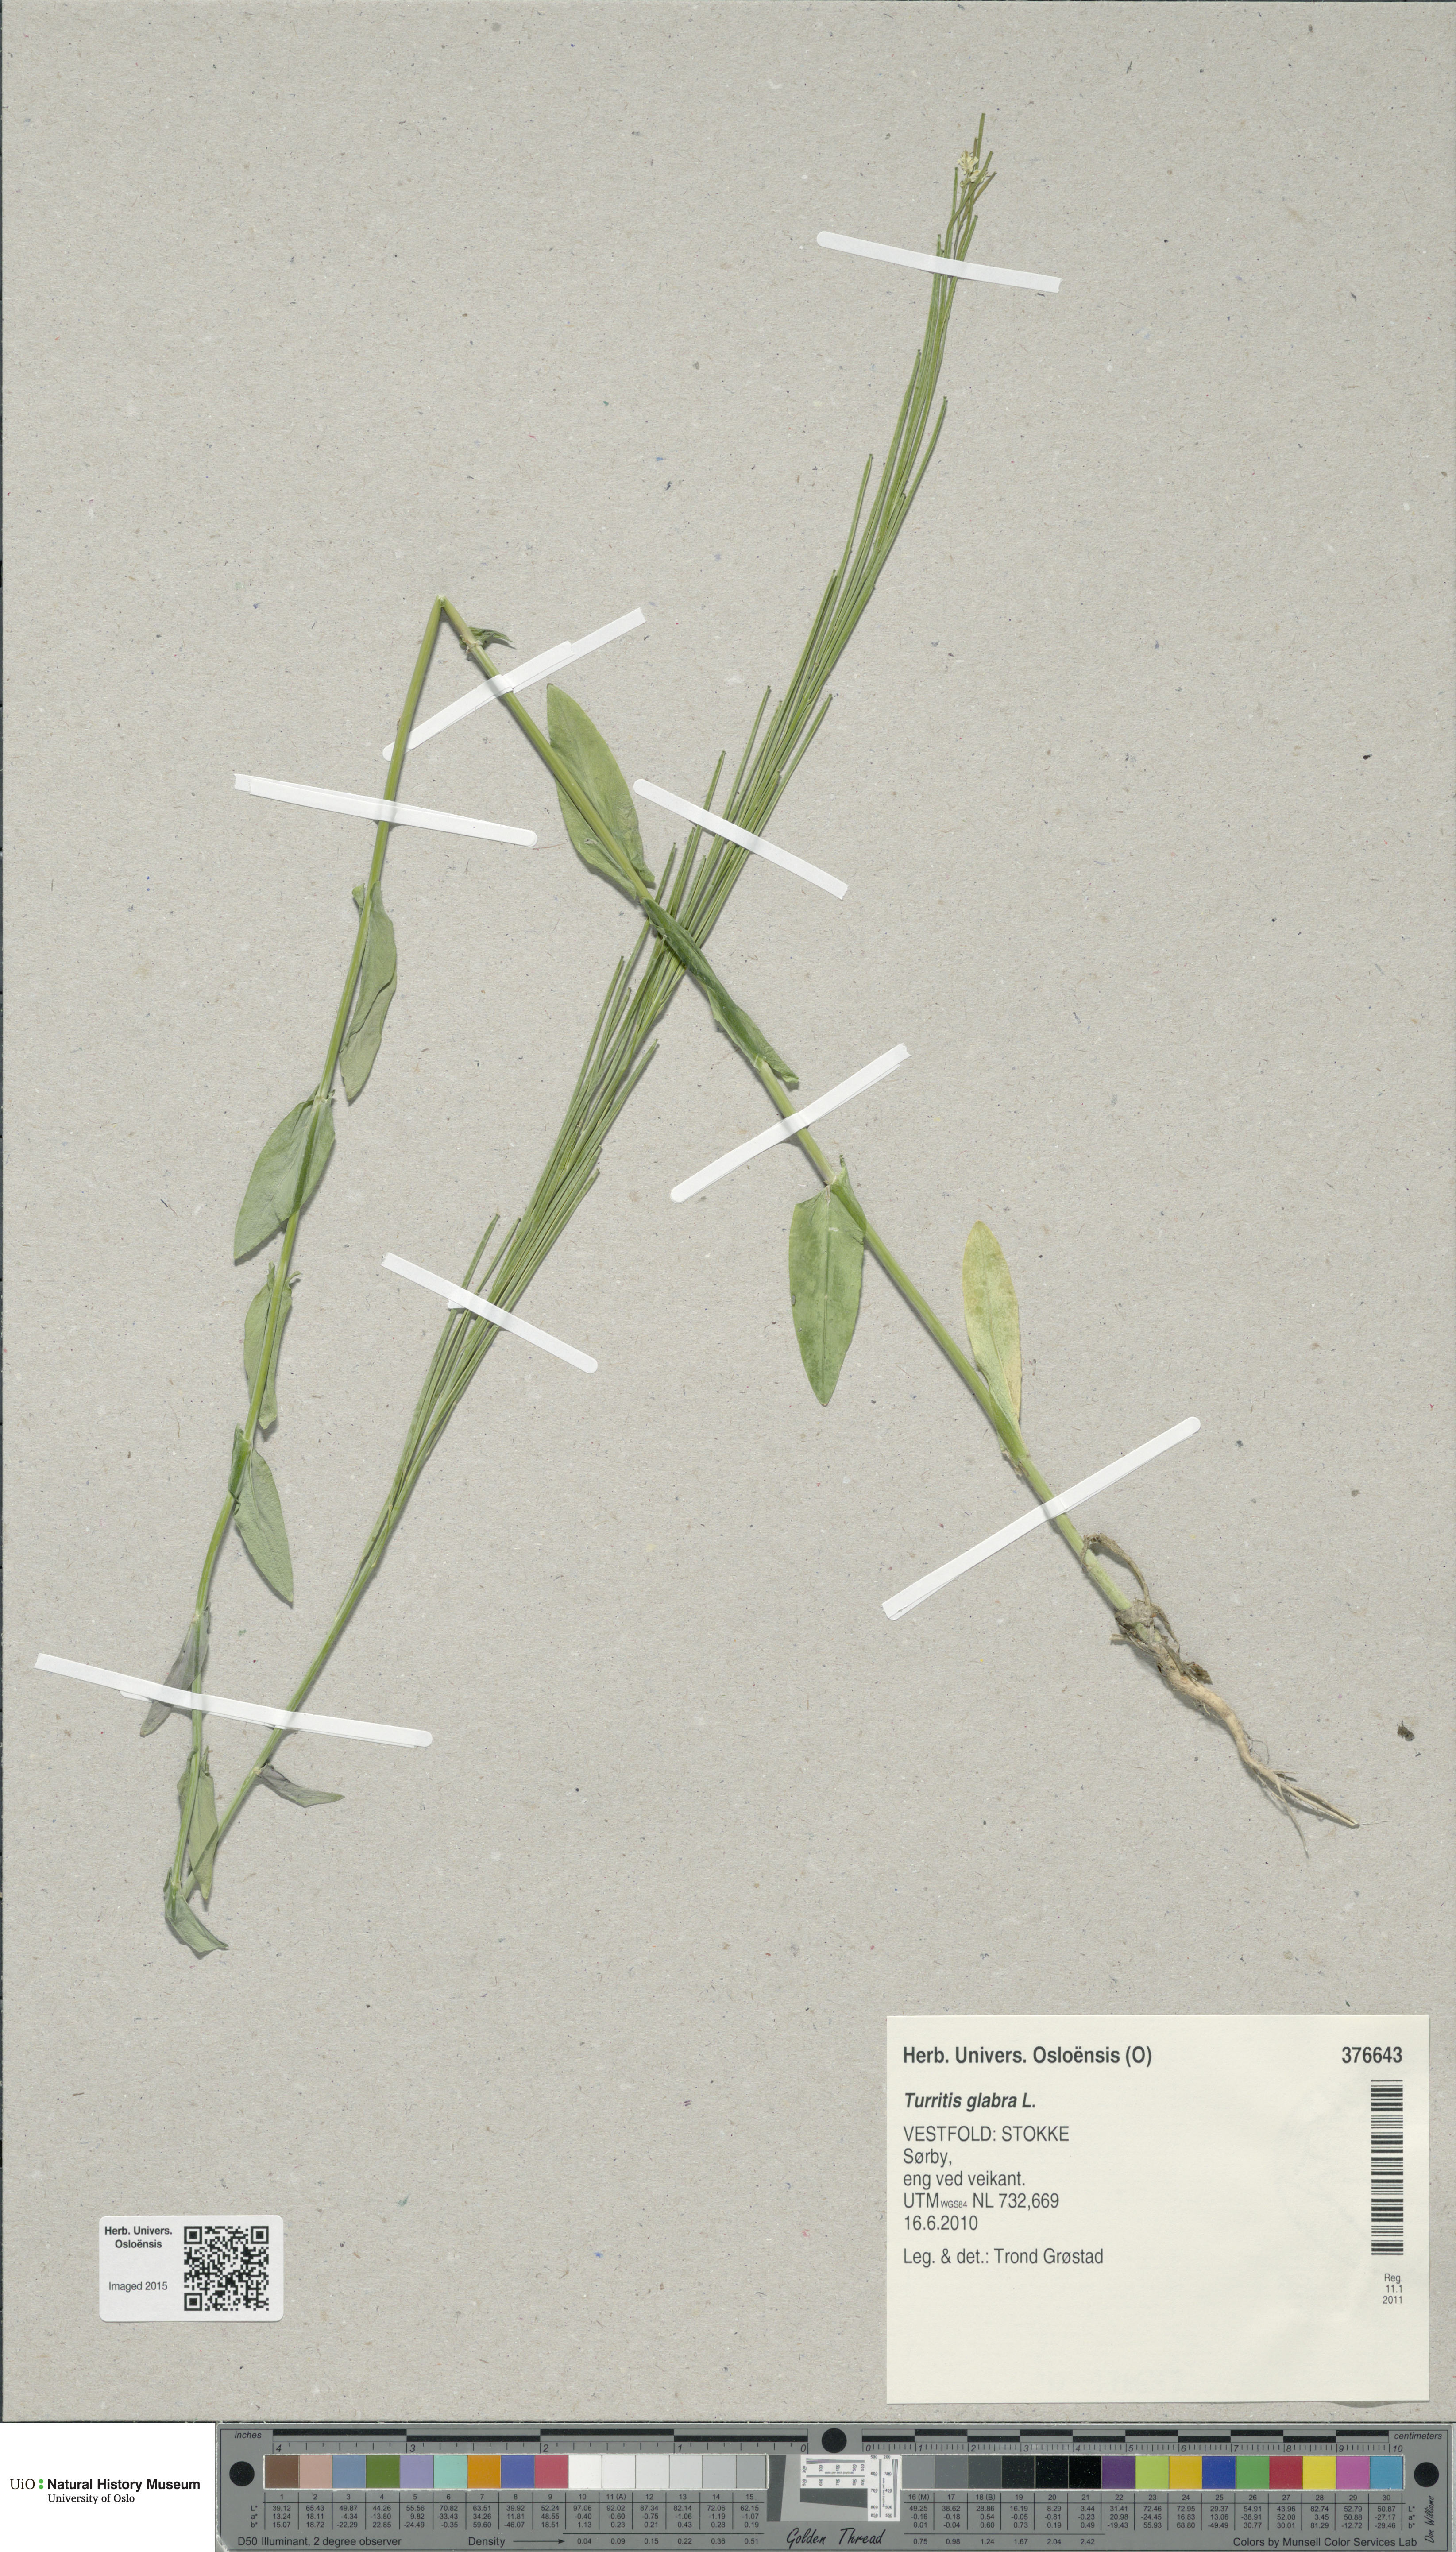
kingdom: Plantae
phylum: Tracheophyta
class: Magnoliopsida
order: Brassicales
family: Brassicaceae
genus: Turritis
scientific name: Turritis glabra
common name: Tower rockcress
